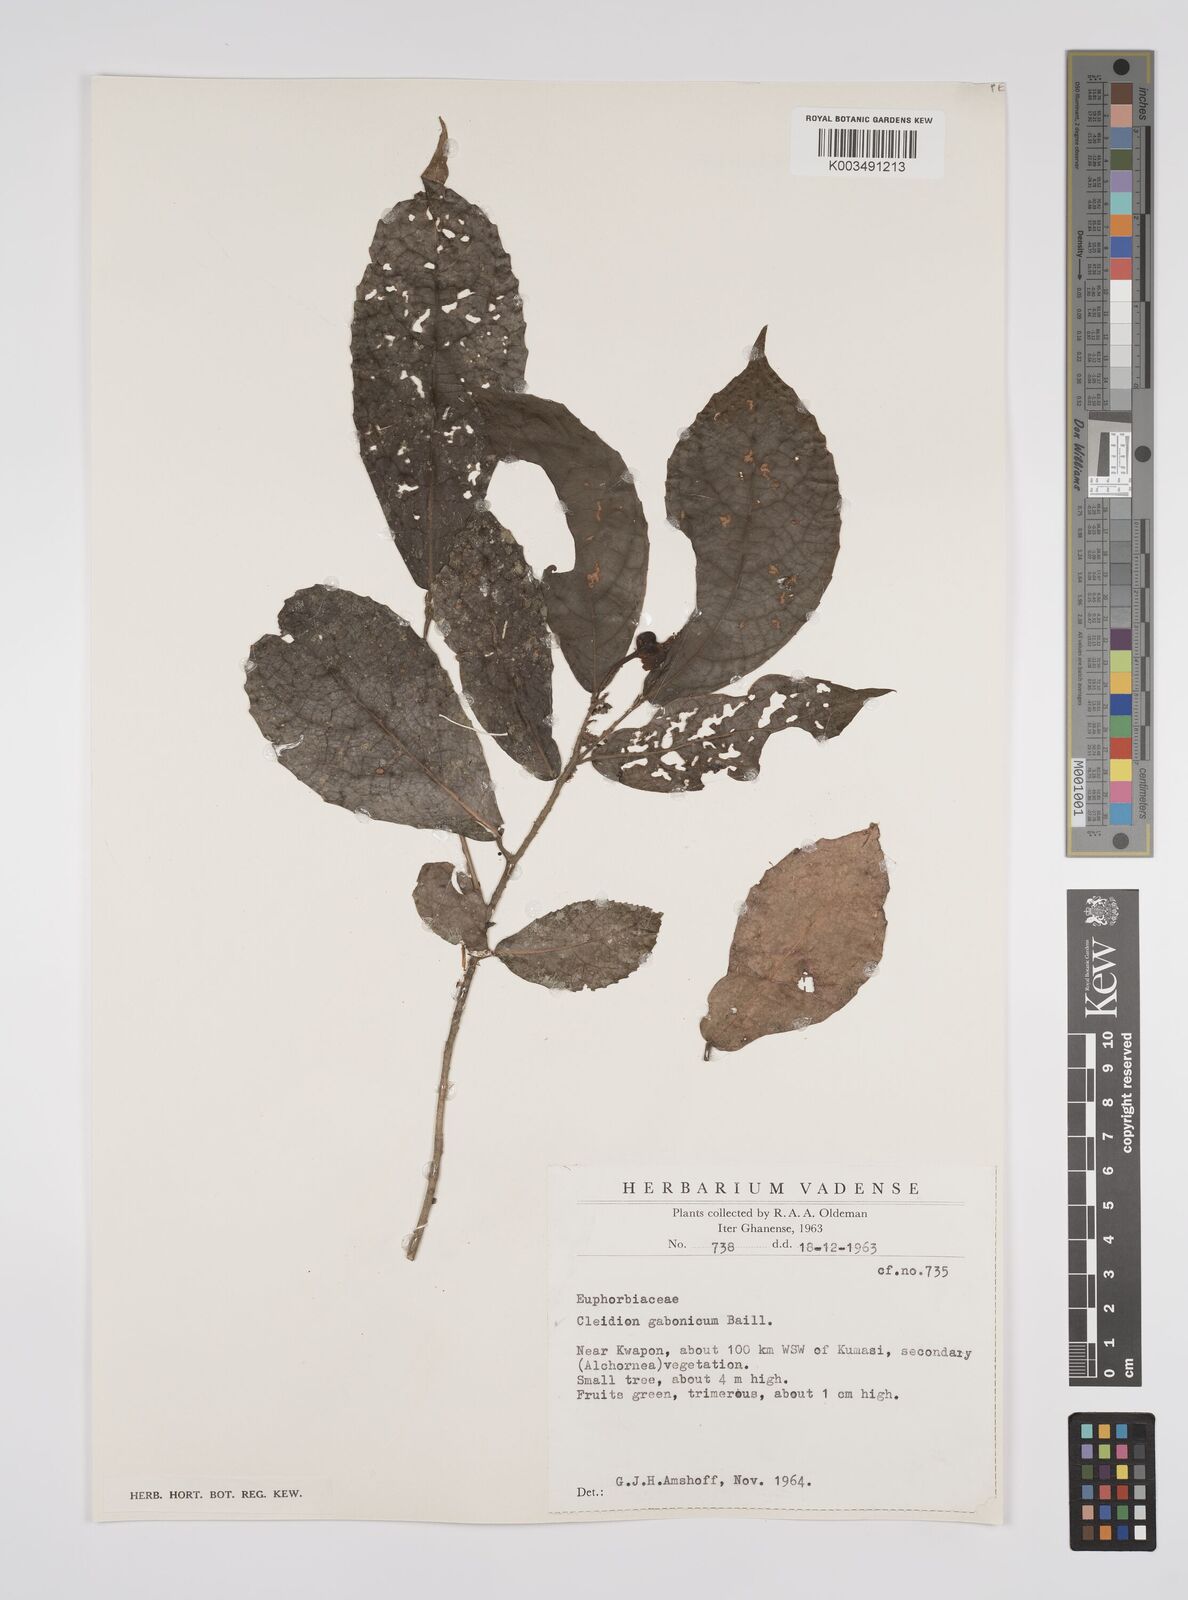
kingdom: Plantae
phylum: Tracheophyta
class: Magnoliopsida
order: Malpighiales
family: Euphorbiaceae
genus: Cleidion
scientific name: Cleidion gabonicum
